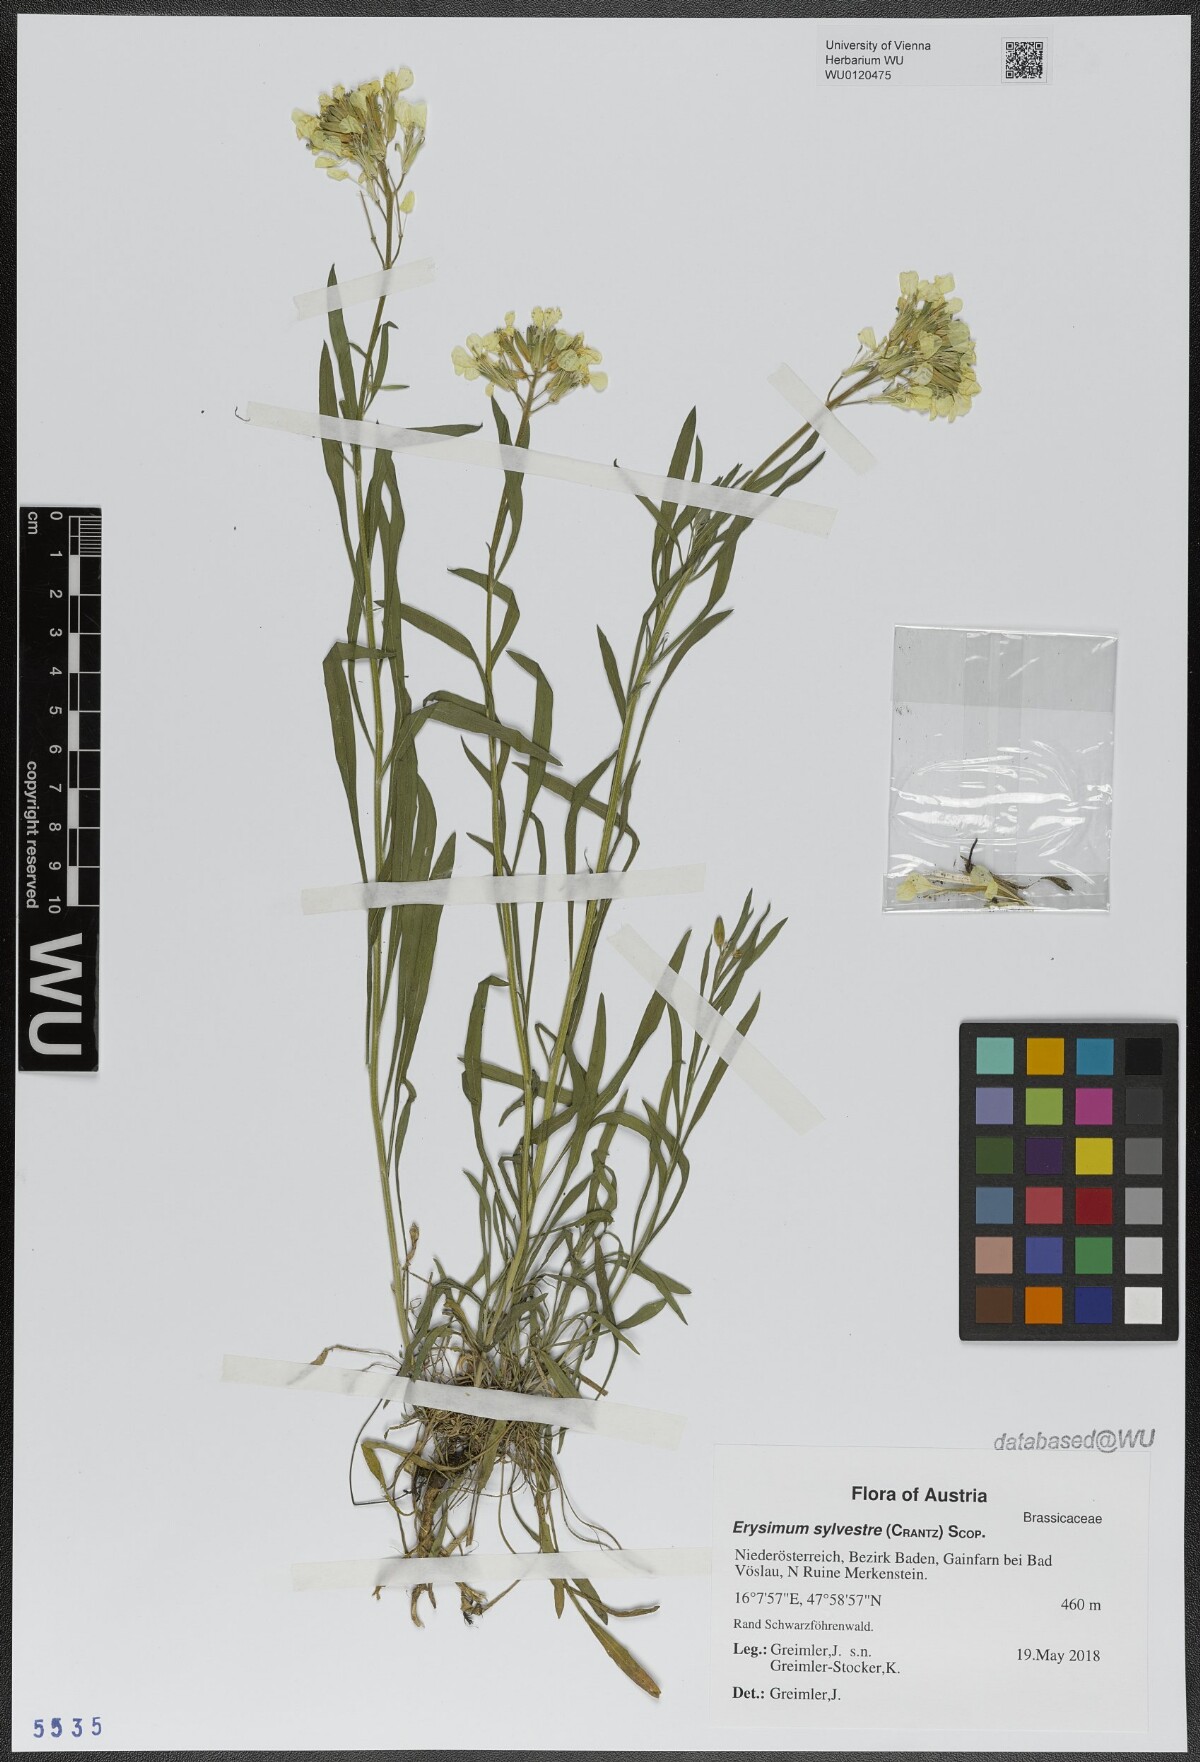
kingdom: Plantae
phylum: Tracheophyta
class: Magnoliopsida
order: Brassicales
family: Brassicaceae
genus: Erysimum
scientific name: Erysimum sylvestre
